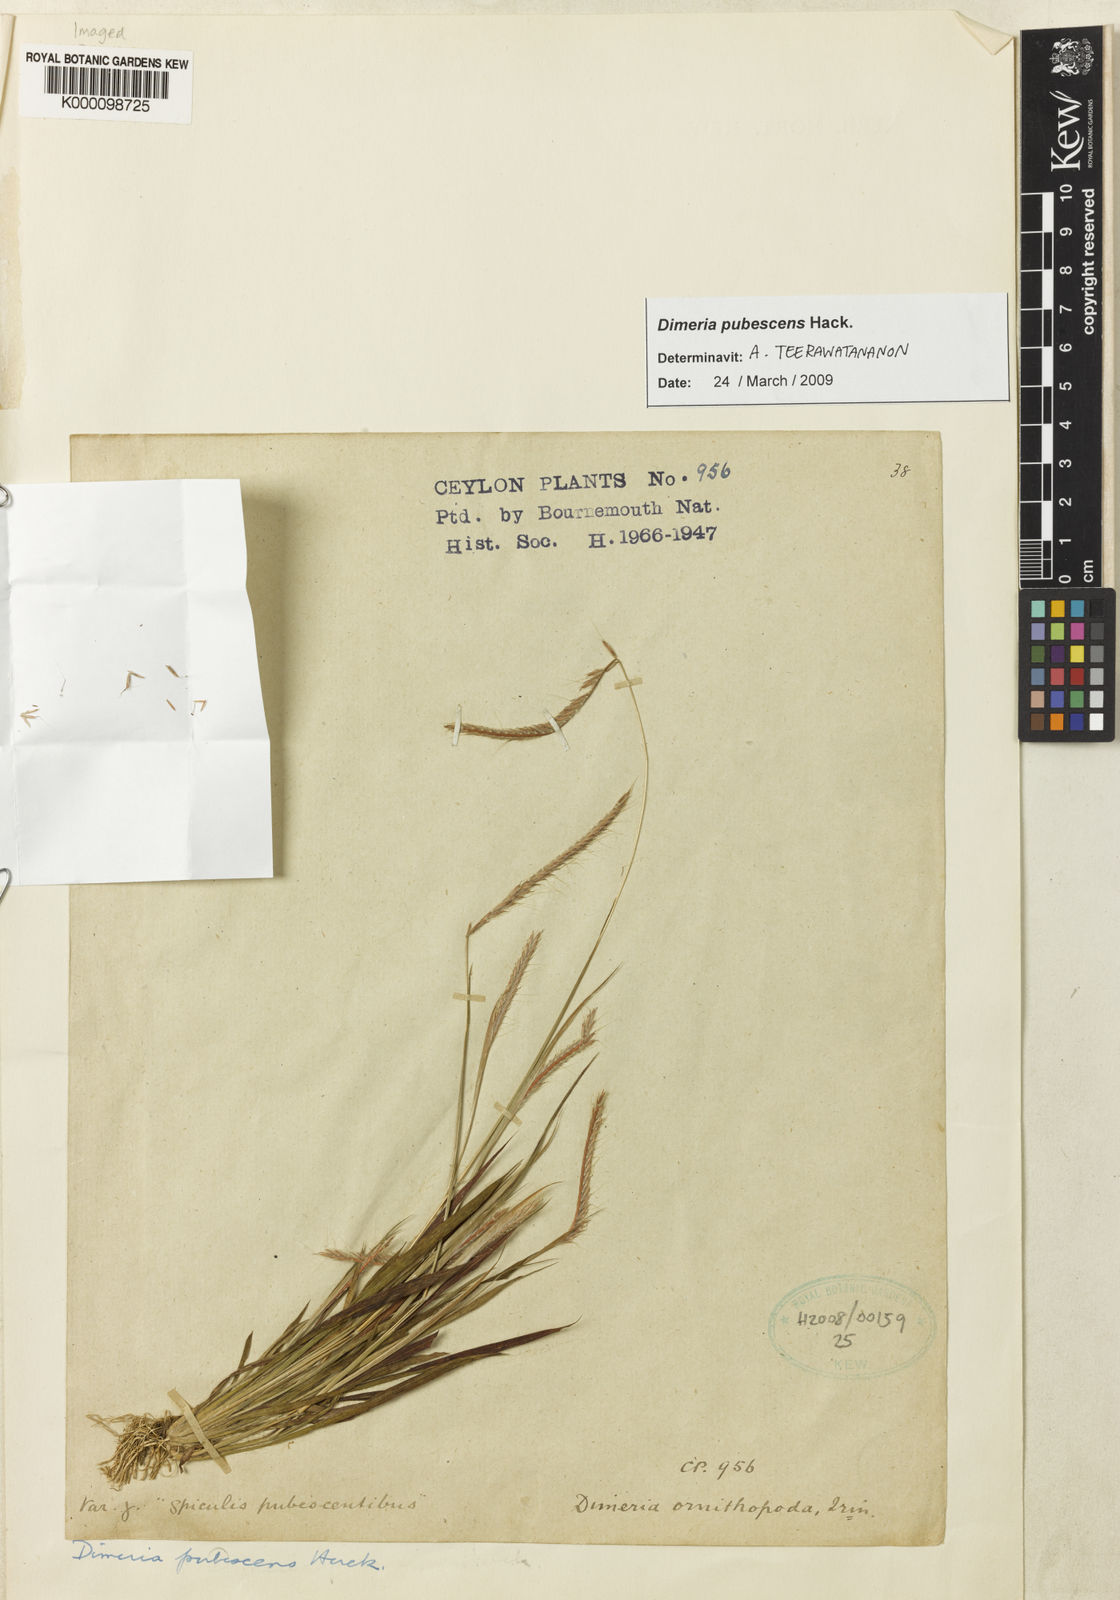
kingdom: Plantae
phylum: Tracheophyta
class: Liliopsida
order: Poales
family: Poaceae
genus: Dimeria
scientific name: Dimeria pubescens
